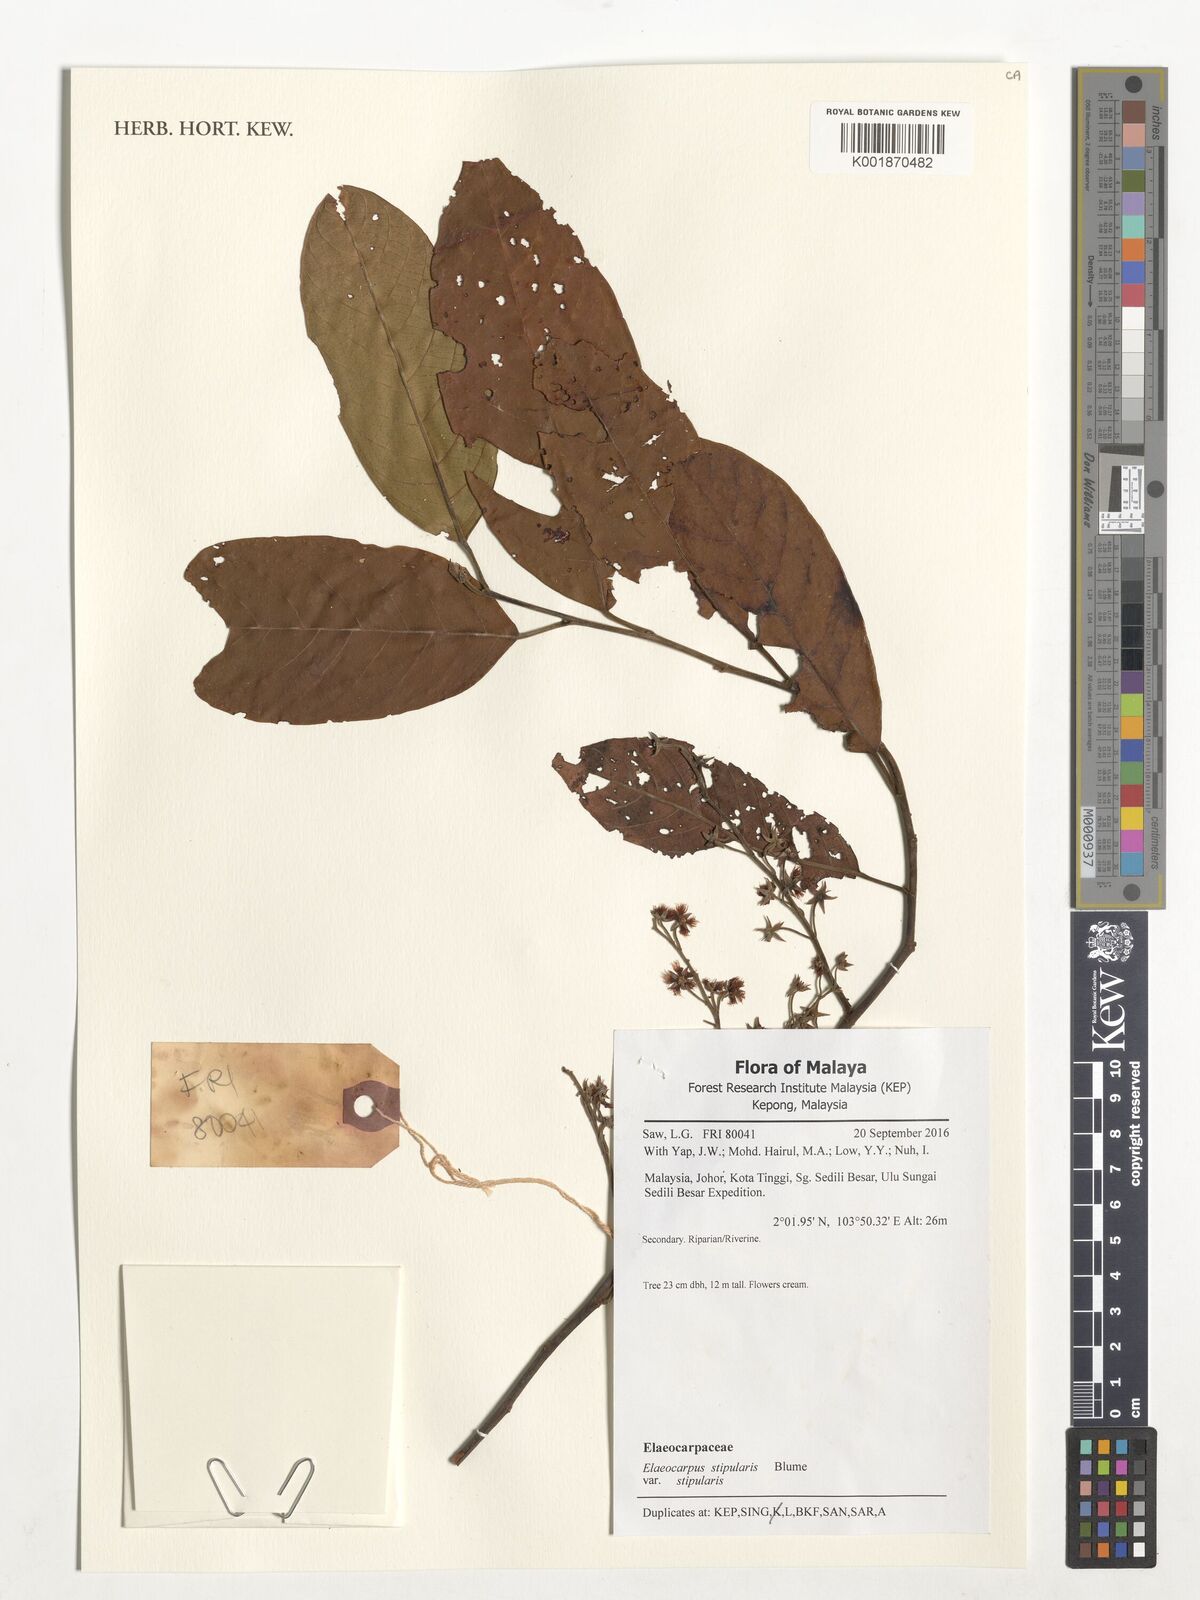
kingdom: Plantae
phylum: Tracheophyta
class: Magnoliopsida
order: Oxalidales
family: Elaeocarpaceae
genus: Elaeocarpus
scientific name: Elaeocarpus stipularis
